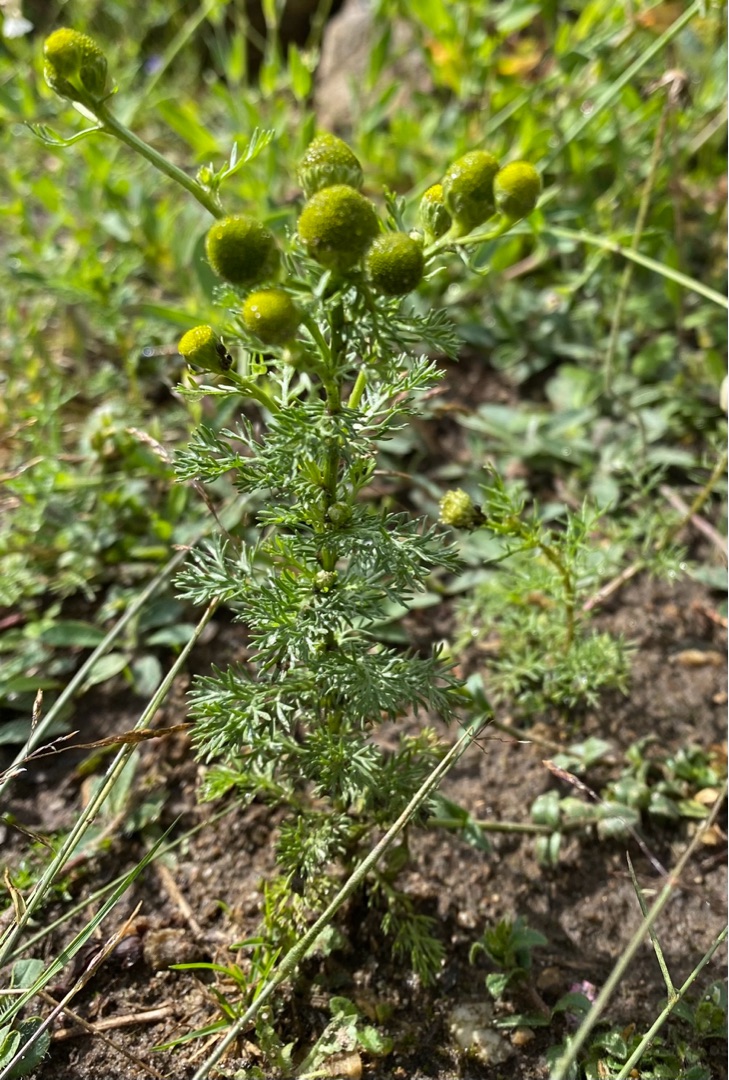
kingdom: Plantae
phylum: Tracheophyta
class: Magnoliopsida
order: Asterales
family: Asteraceae
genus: Matricaria
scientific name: Matricaria discoidea
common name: Skive-kamille
